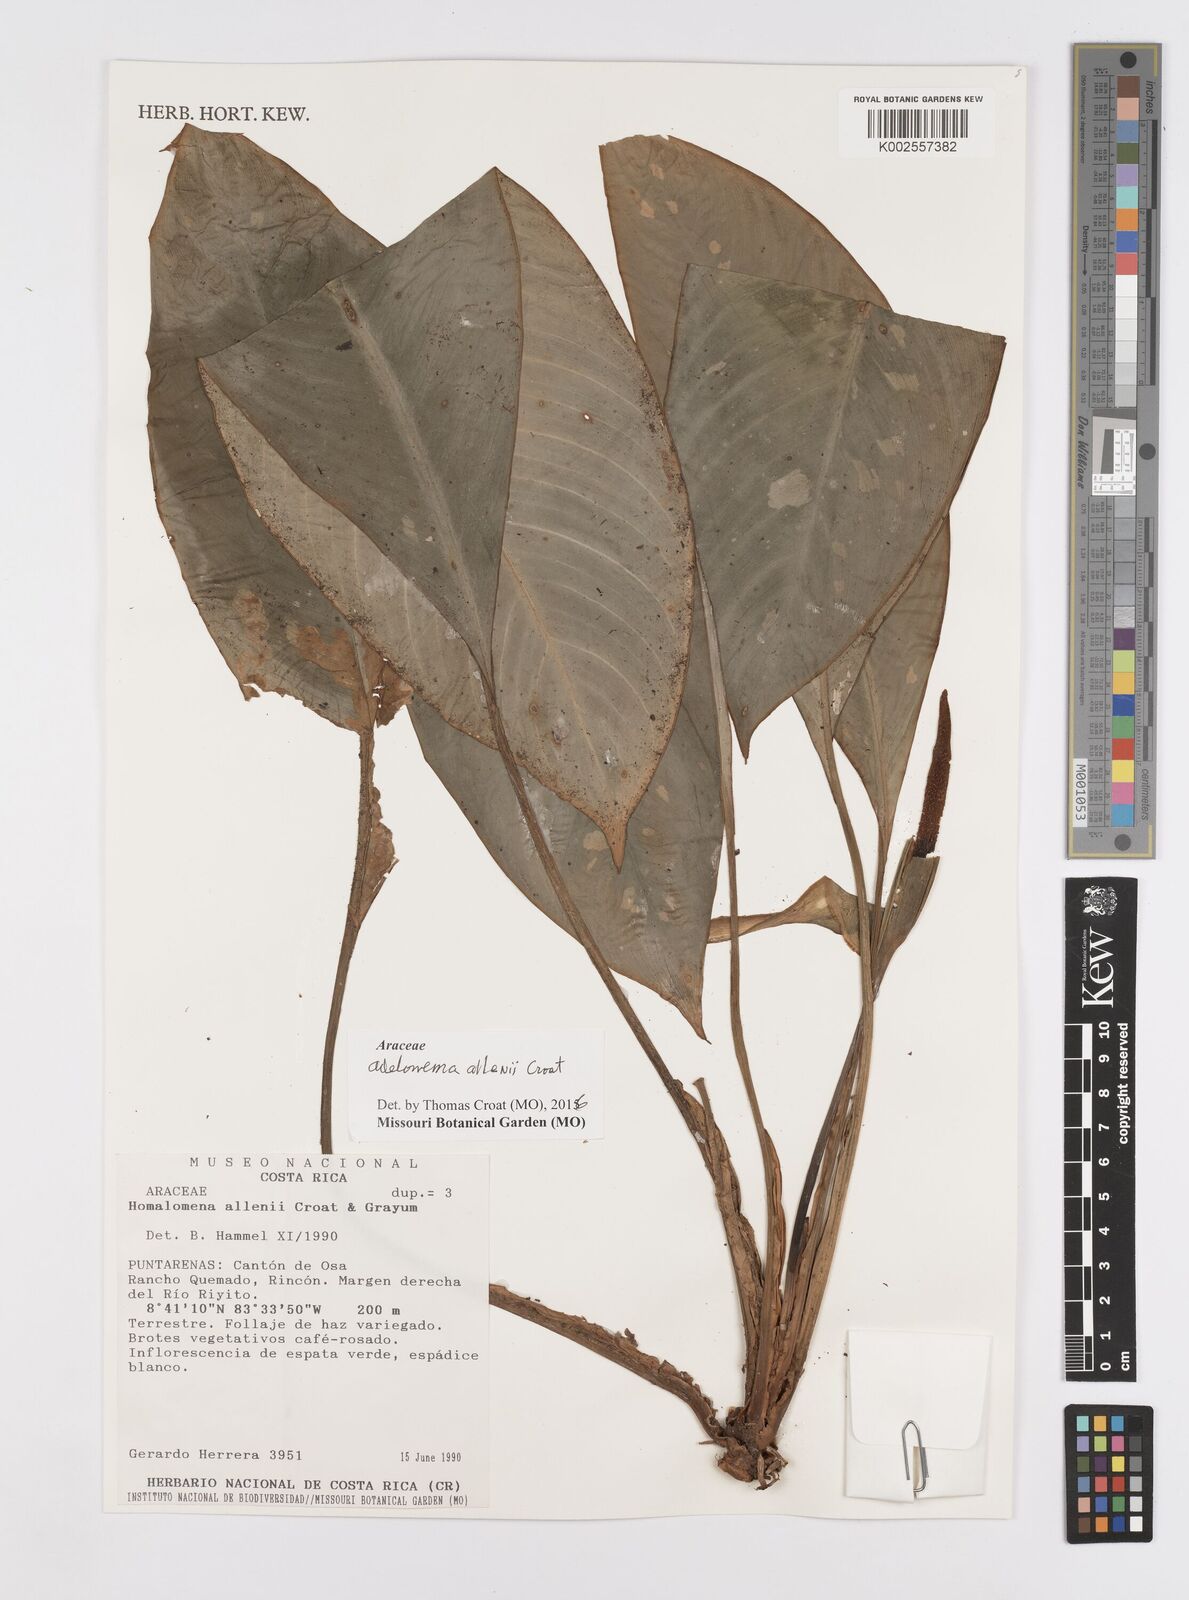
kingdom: Plantae
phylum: Tracheophyta
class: Liliopsida
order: Alismatales
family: Araceae
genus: Adelonema
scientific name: Adelonema allenii
